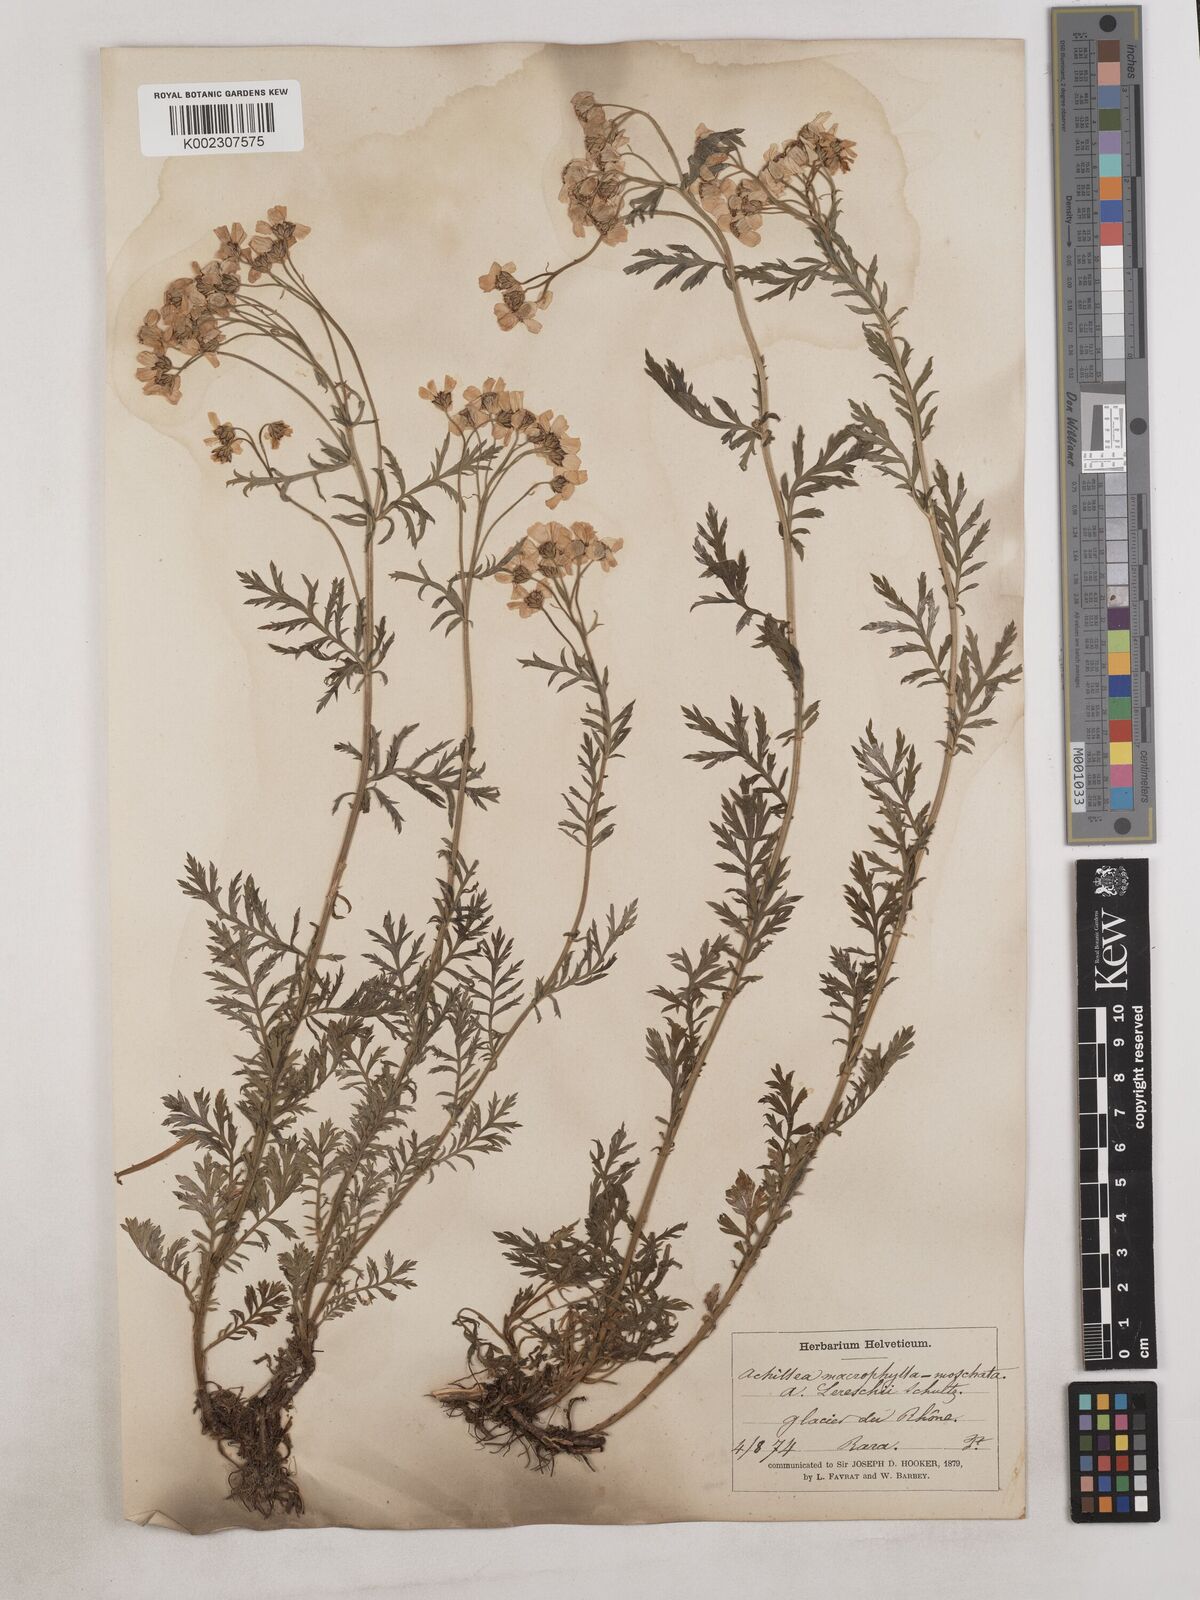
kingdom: Plantae
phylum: Tracheophyta
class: Magnoliopsida
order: Asterales
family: Asteraceae
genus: Achillea
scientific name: Achillea valesiaca
